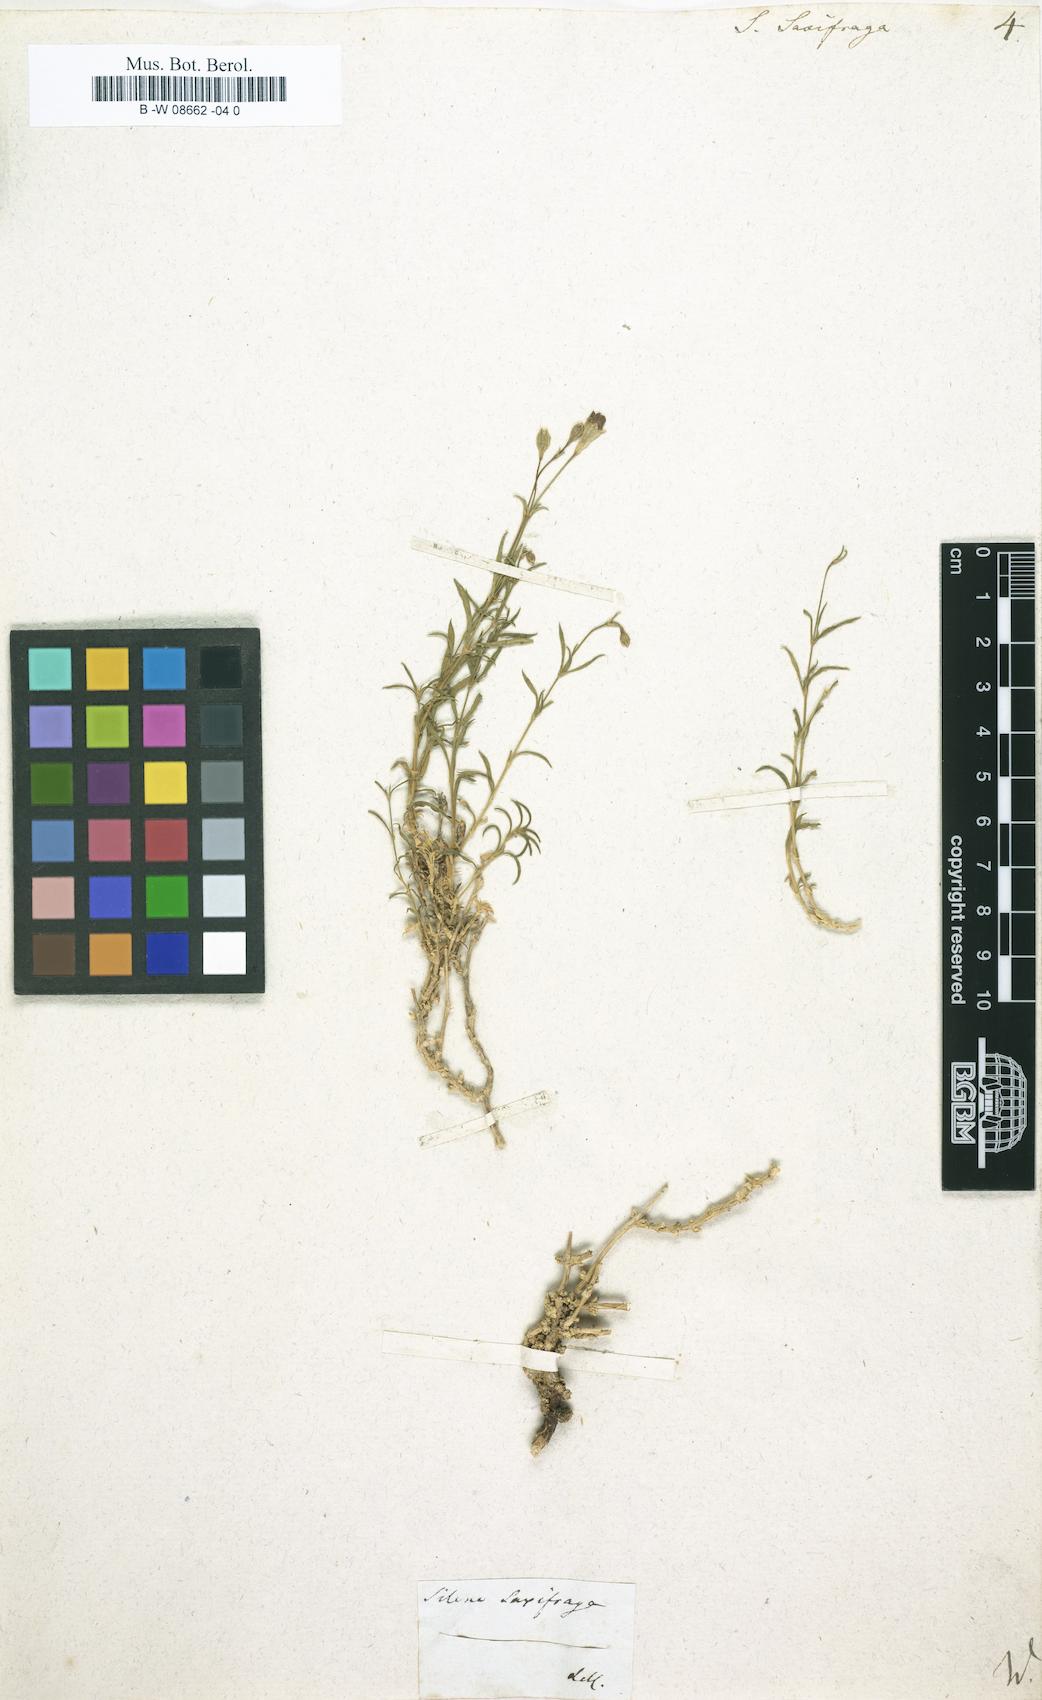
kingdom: Plantae
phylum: Tracheophyta
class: Magnoliopsida
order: Caryophyllales
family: Caryophyllaceae
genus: Silene
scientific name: Silene saxifraga
